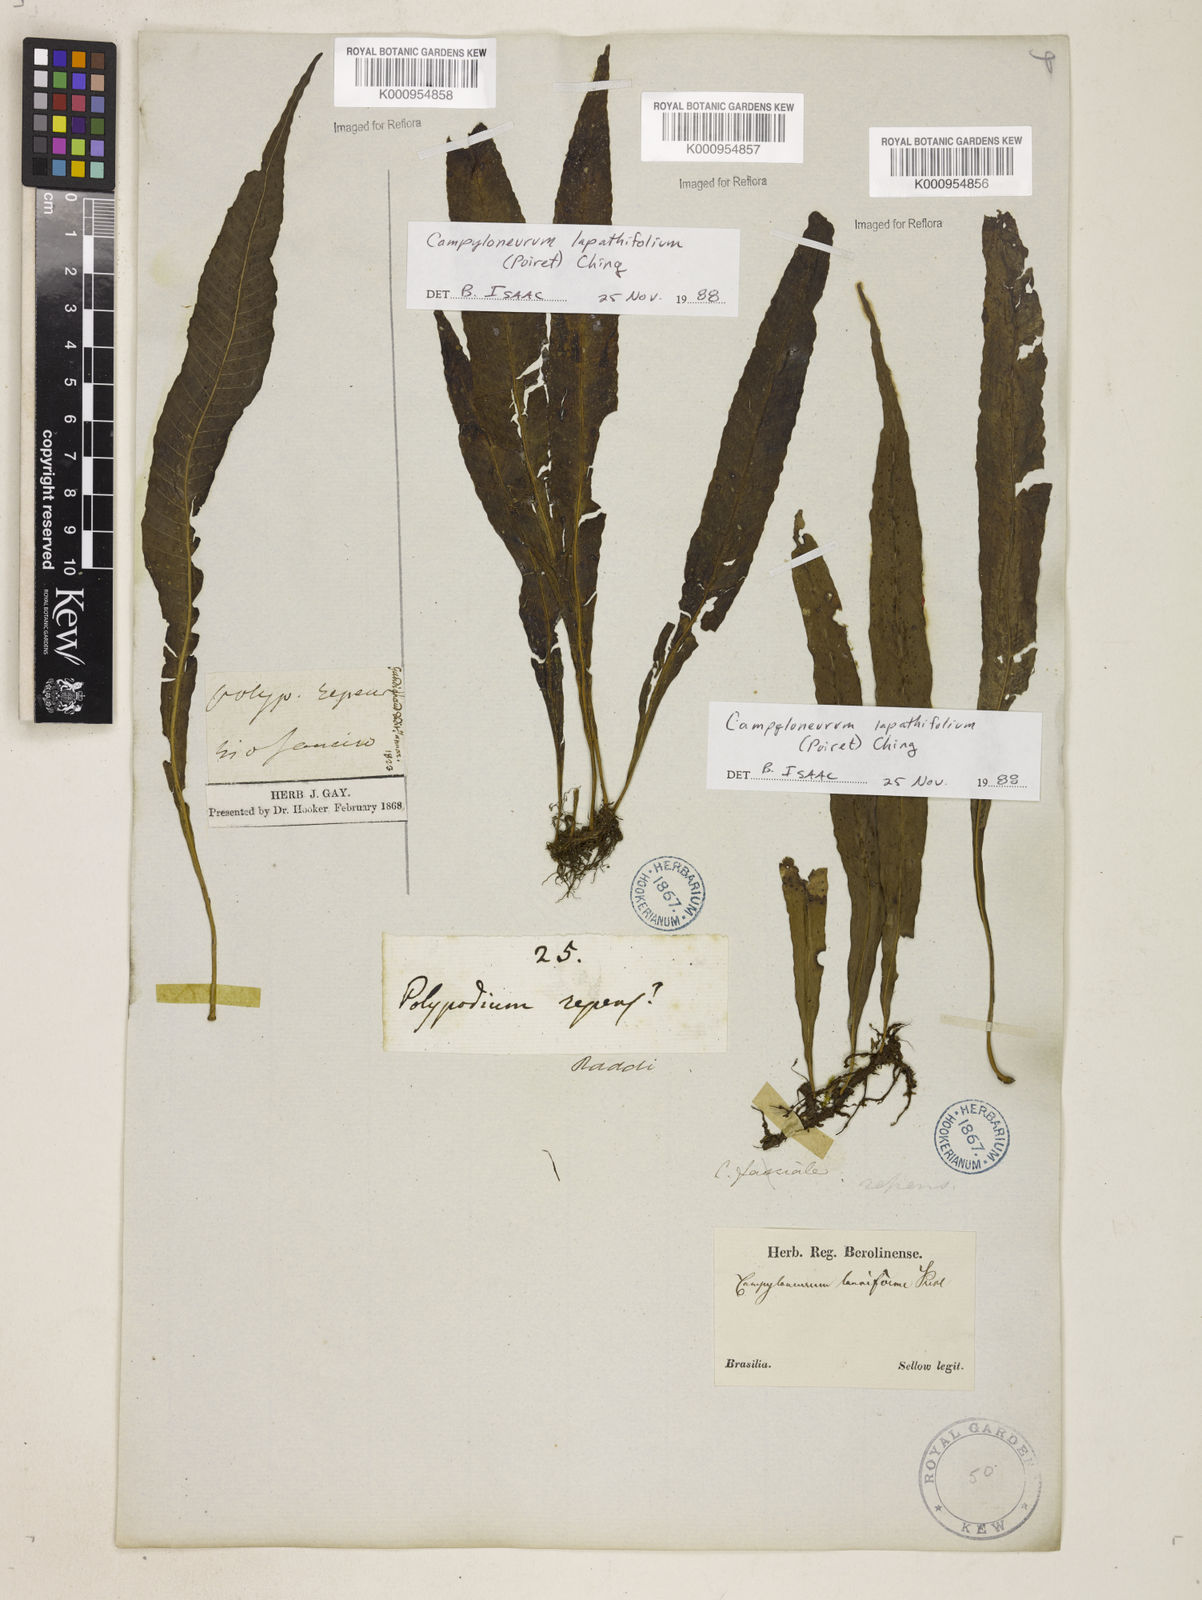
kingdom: Plantae
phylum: Tracheophyta
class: Polypodiopsida
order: Polypodiales
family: Polypodiaceae
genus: Campyloneurum
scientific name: Campyloneurum repens
